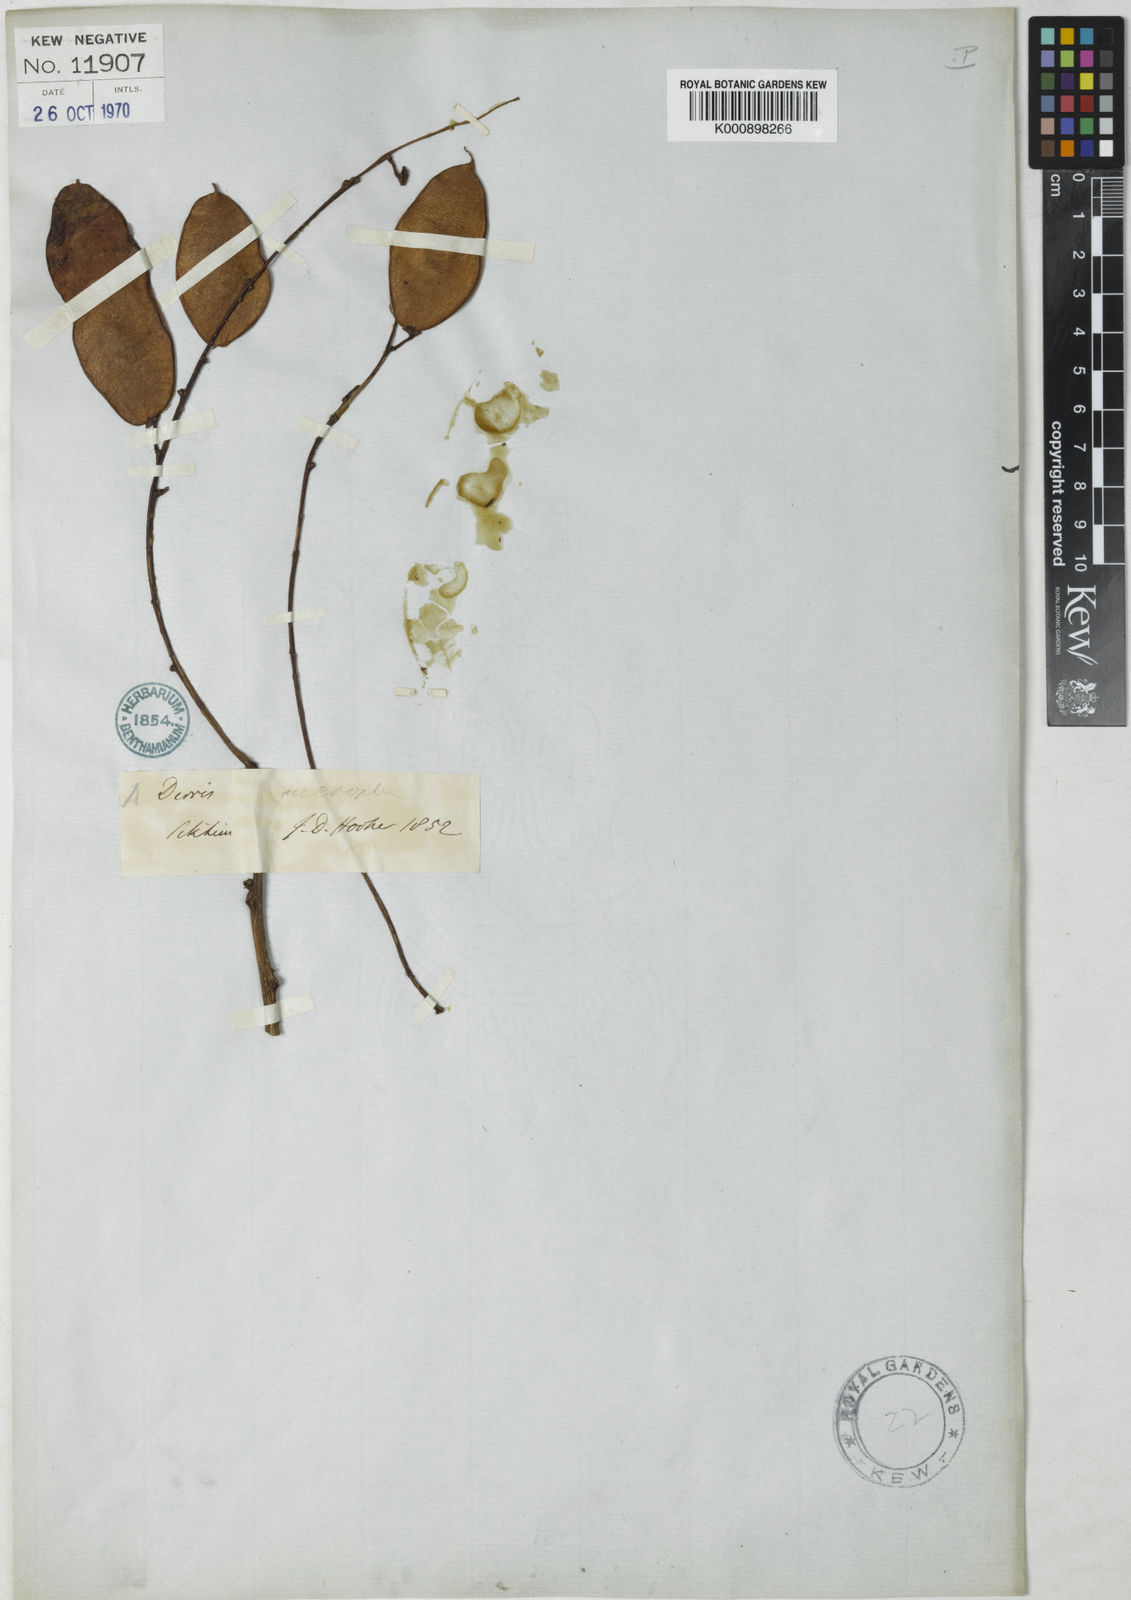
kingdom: Plantae
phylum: Tracheophyta
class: Magnoliopsida
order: Fabales
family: Fabaceae
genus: Derris
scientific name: Derris monticola
